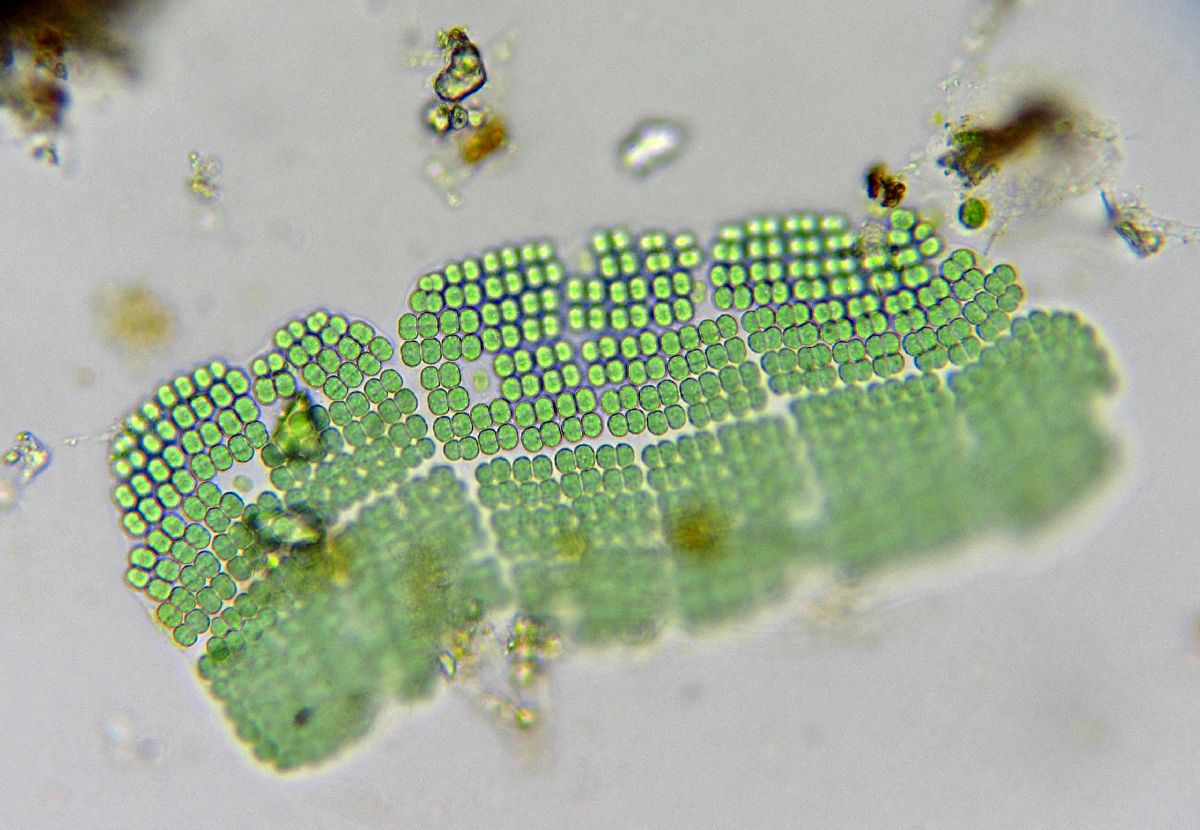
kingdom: Bacteria
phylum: Cyanobacteria
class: Cyanobacteriia
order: Cyanobacteriales
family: Chamaesiphonaceae
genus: Merismopedia
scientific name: Merismopedia elegans
